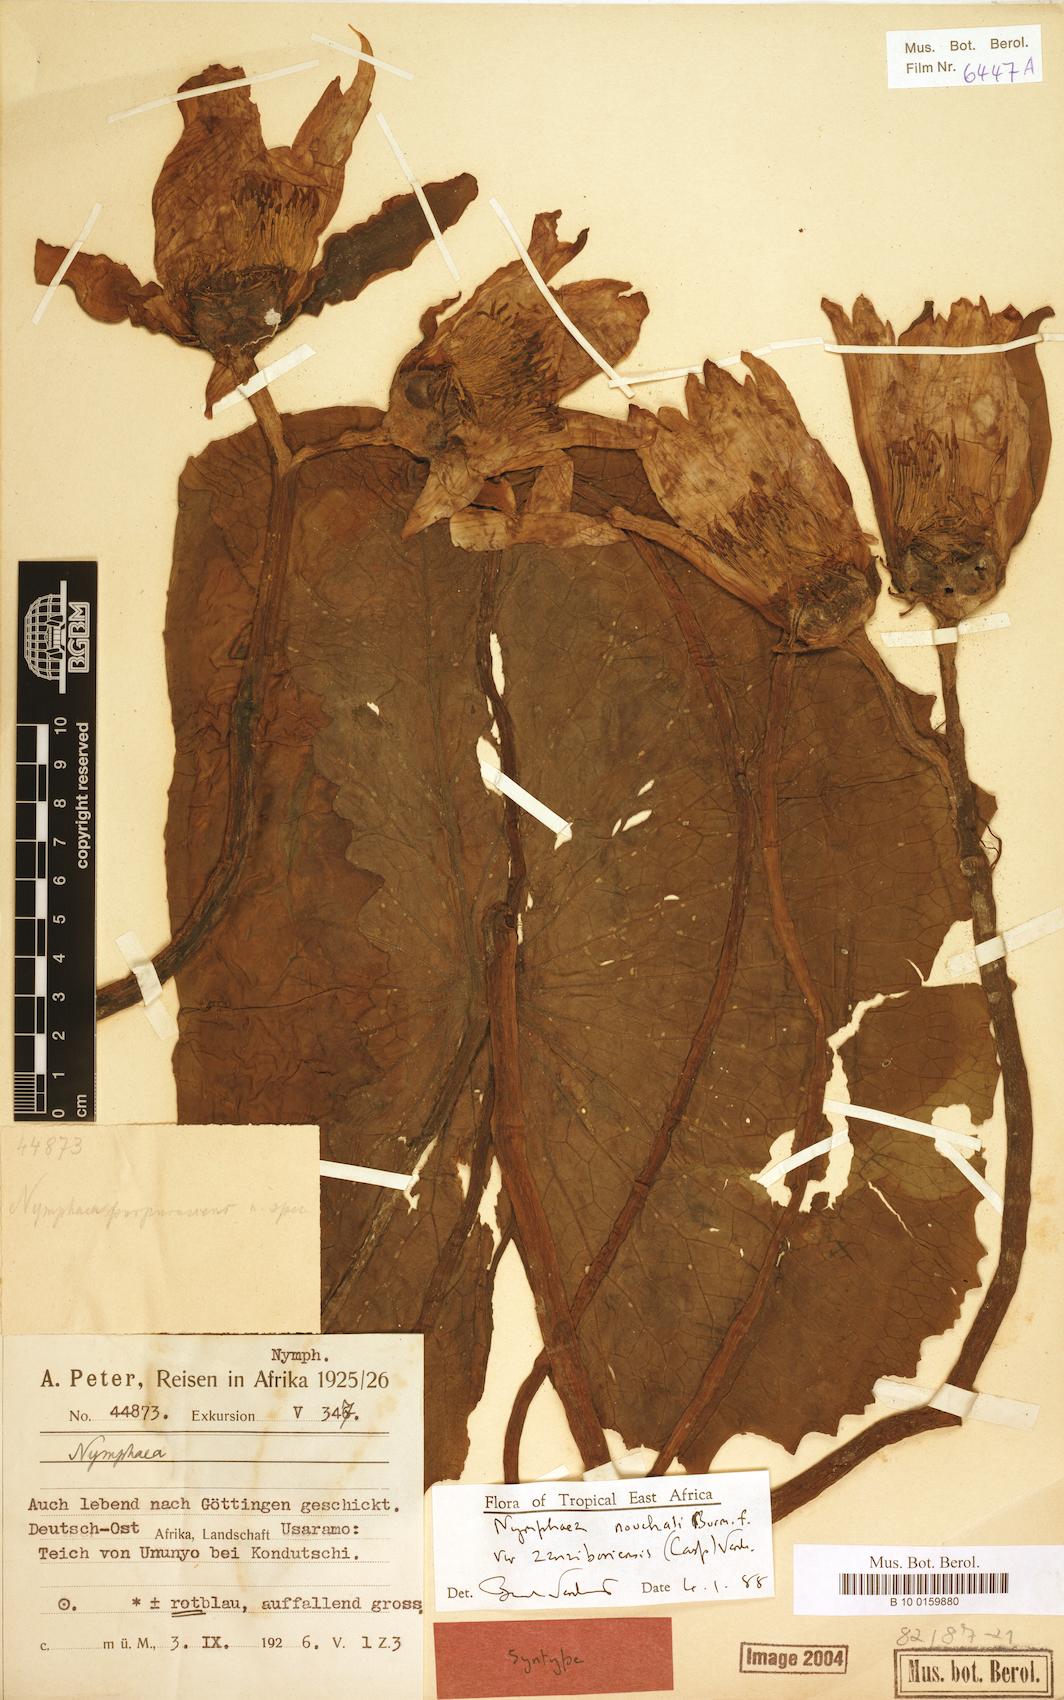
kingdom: Plantae
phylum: Tracheophyta
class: Magnoliopsida
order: Nymphaeales
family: Nymphaeaceae
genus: Nymphaea
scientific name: Nymphaea nouchali
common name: Blue lotus
